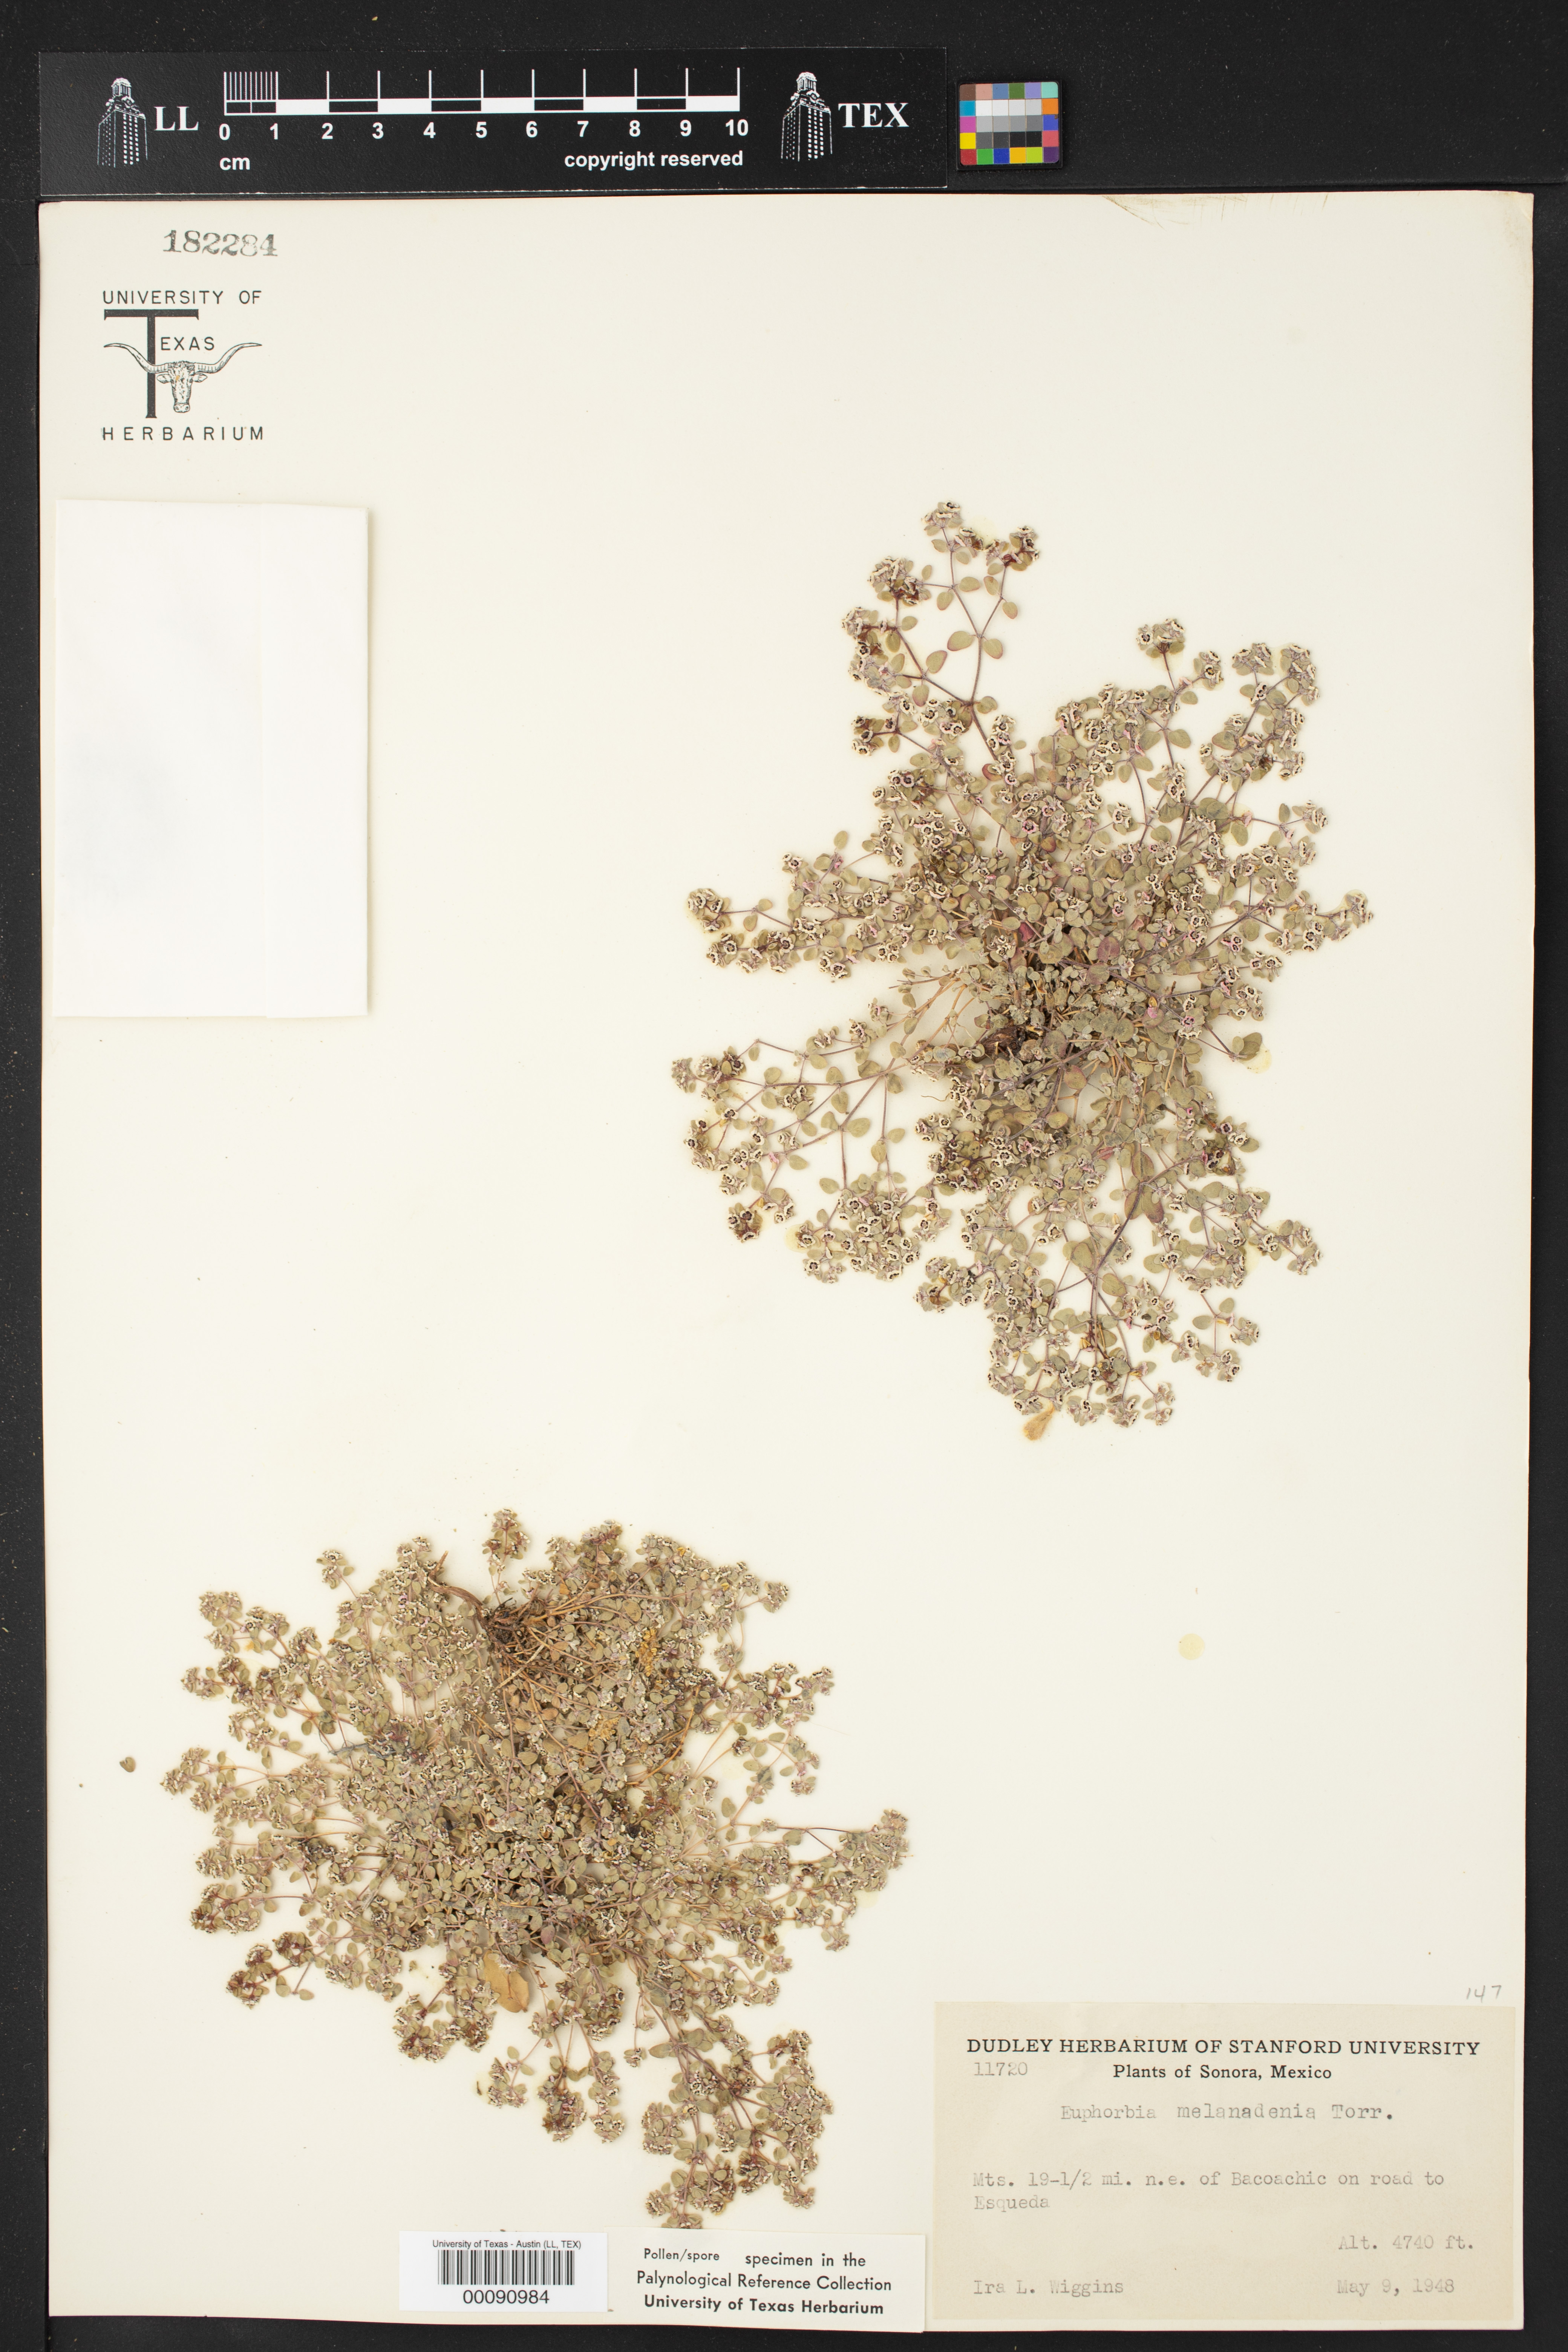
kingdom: Plantae
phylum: Tracheophyta
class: Magnoliopsida
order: Malpighiales
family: Euphorbiaceae
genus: Euphorbia
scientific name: Euphorbia melanadenia
